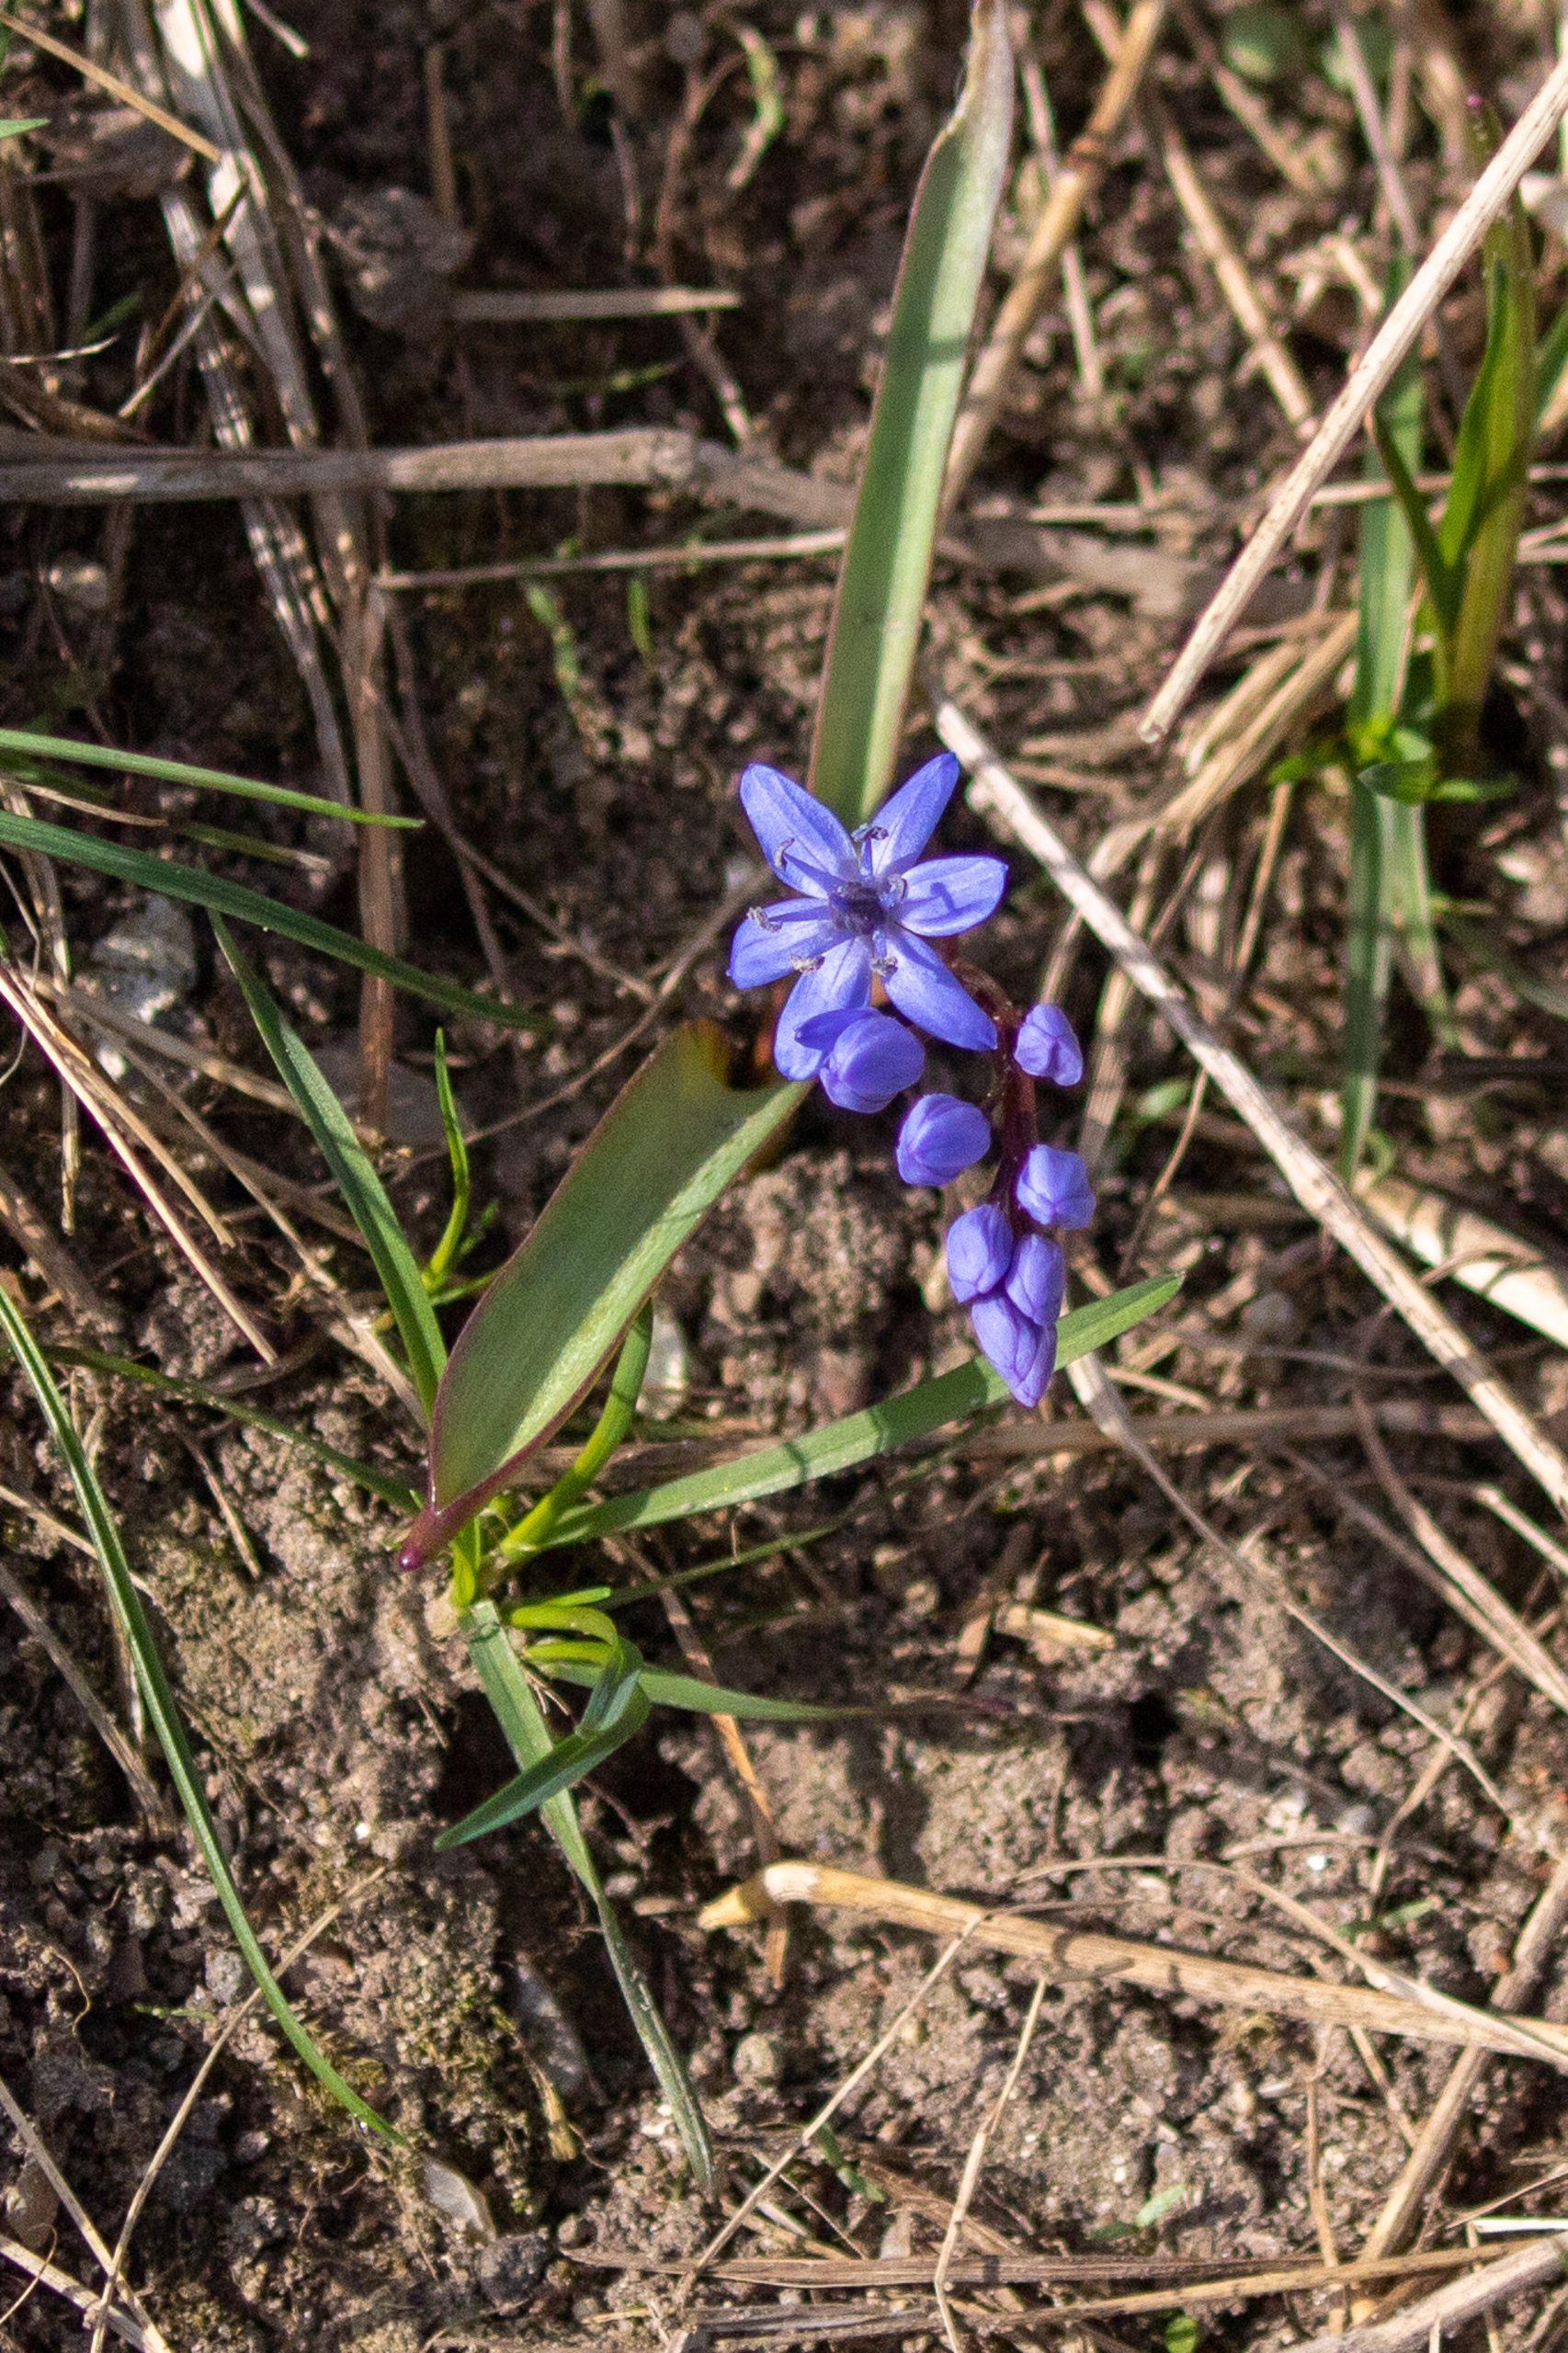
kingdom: Plantae
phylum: Tracheophyta
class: Liliopsida
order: Asparagales
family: Asparagaceae
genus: Scilla
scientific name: Scilla bifolia
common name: Tobladet skilla
